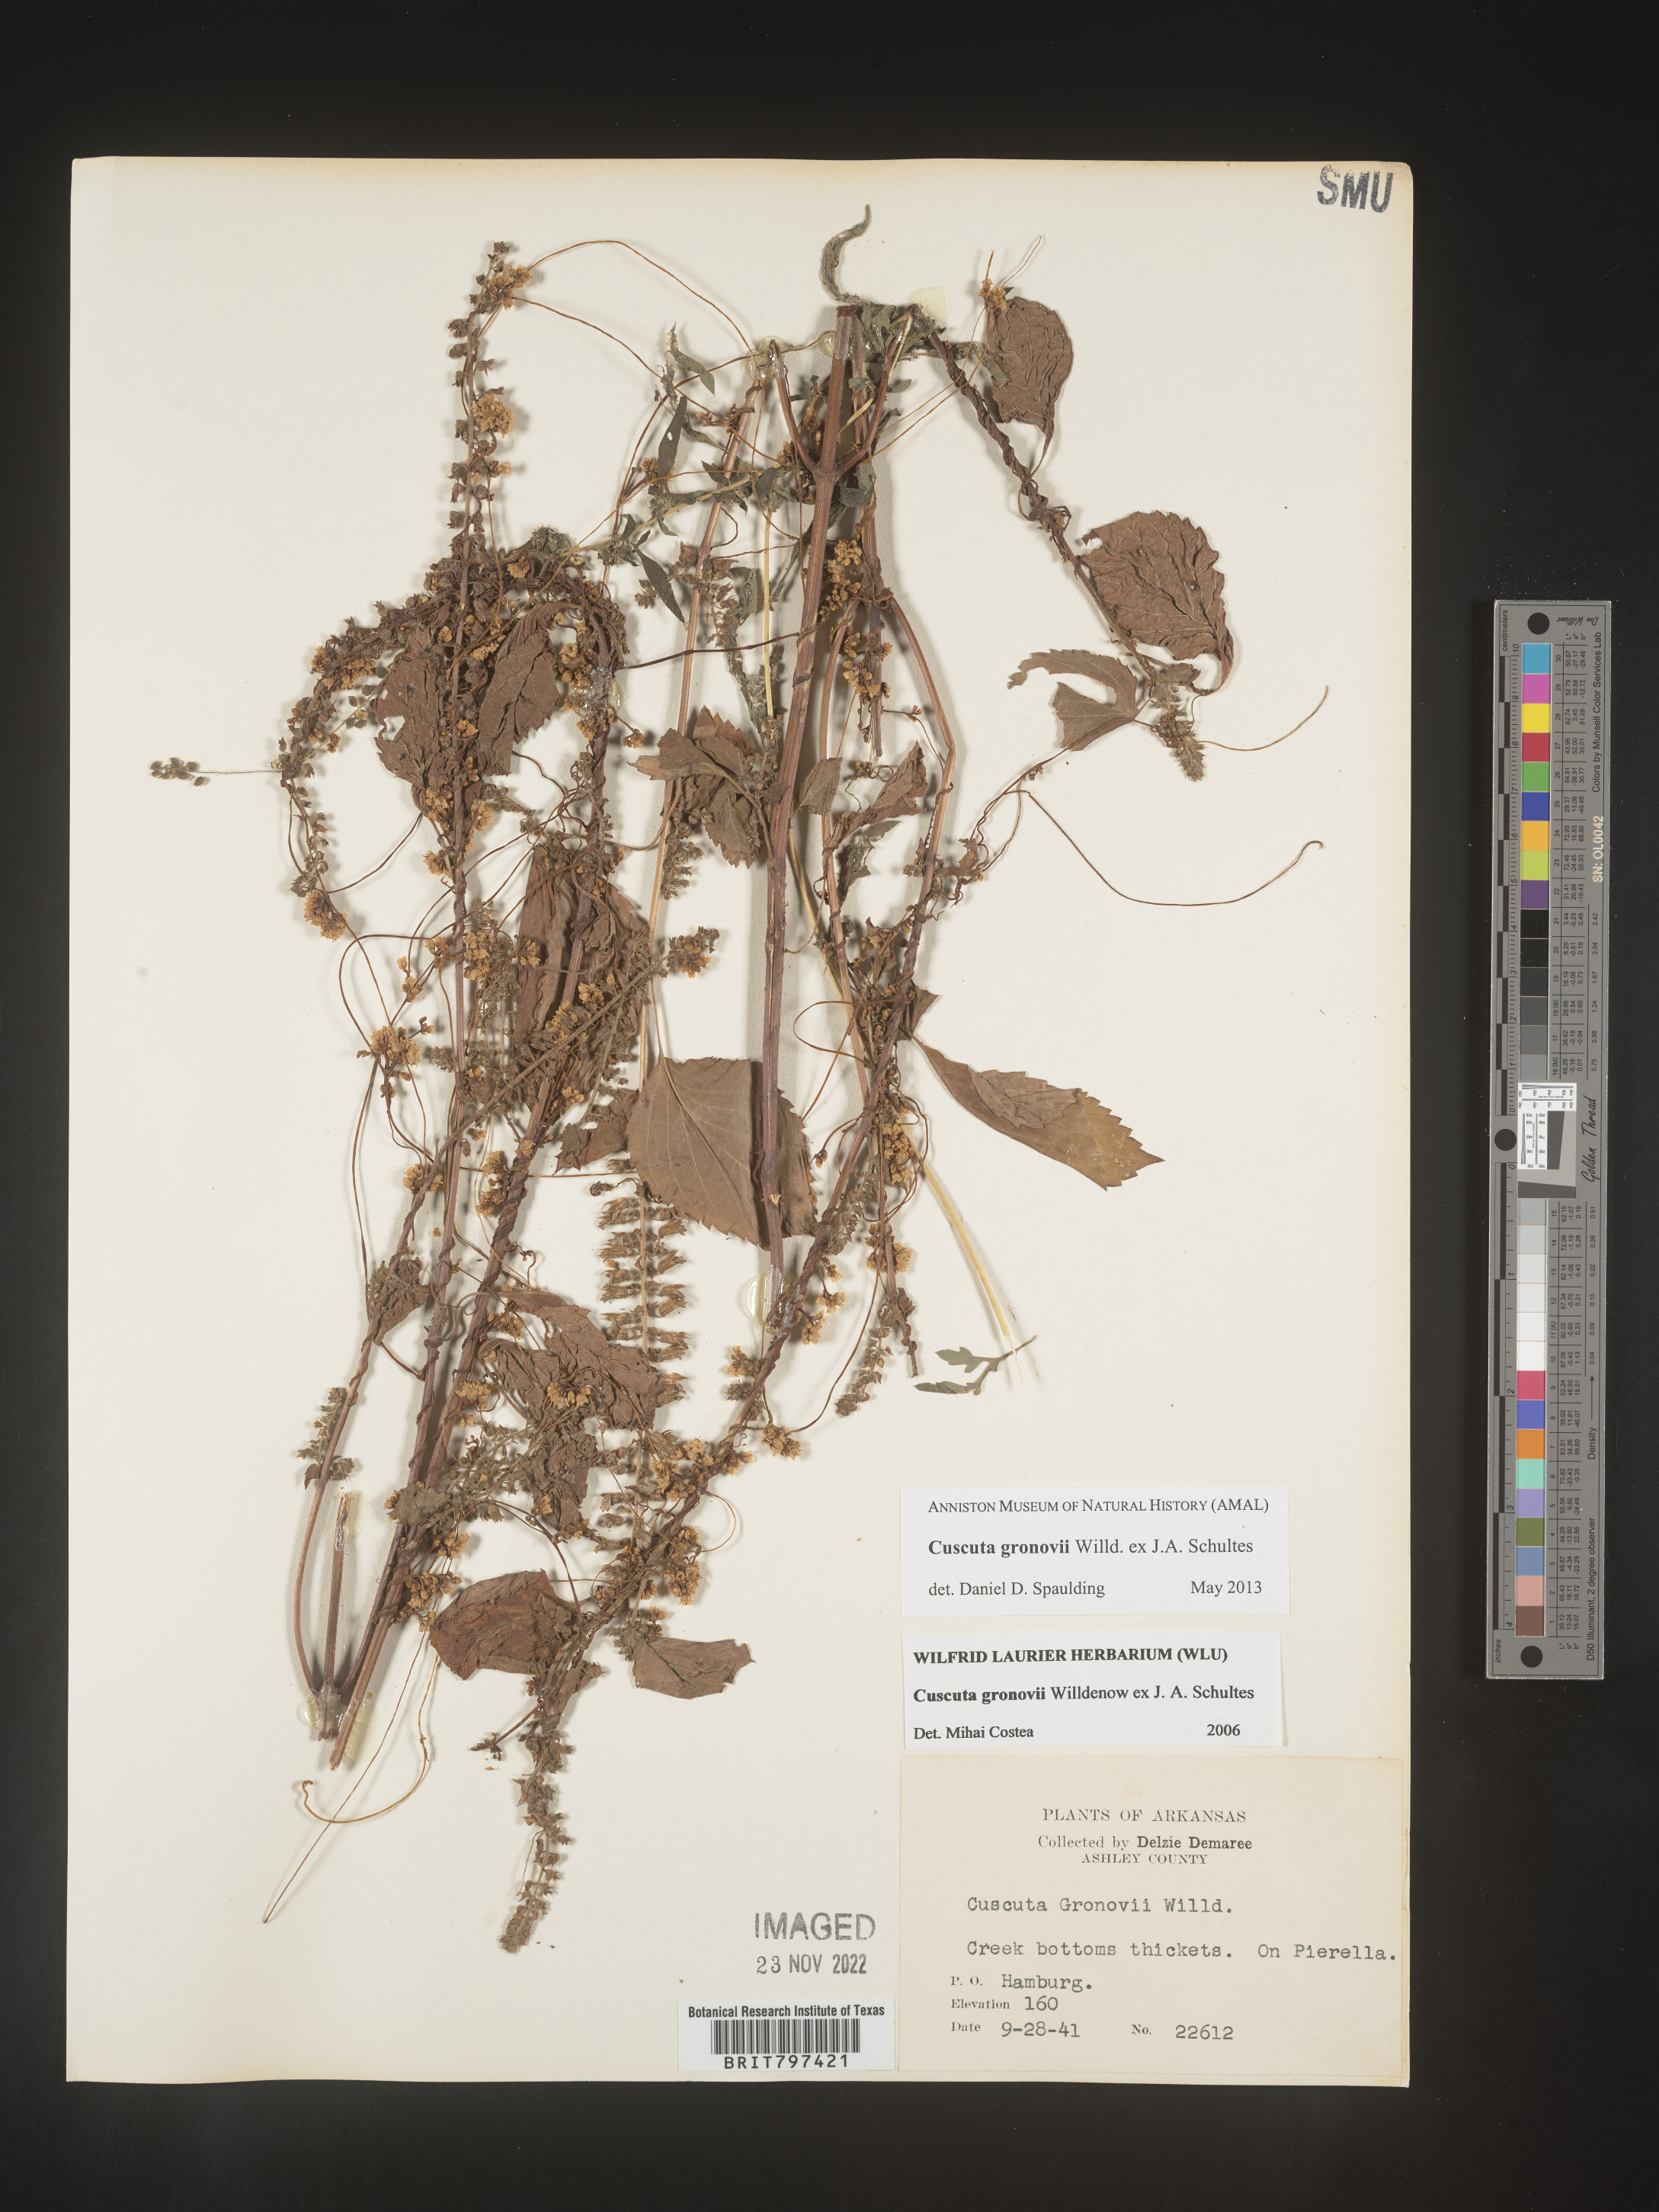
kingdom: Plantae
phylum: Tracheophyta
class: Magnoliopsida
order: Solanales
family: Convolvulaceae
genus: Cuscuta
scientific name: Cuscuta gronovii
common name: Common dodder
